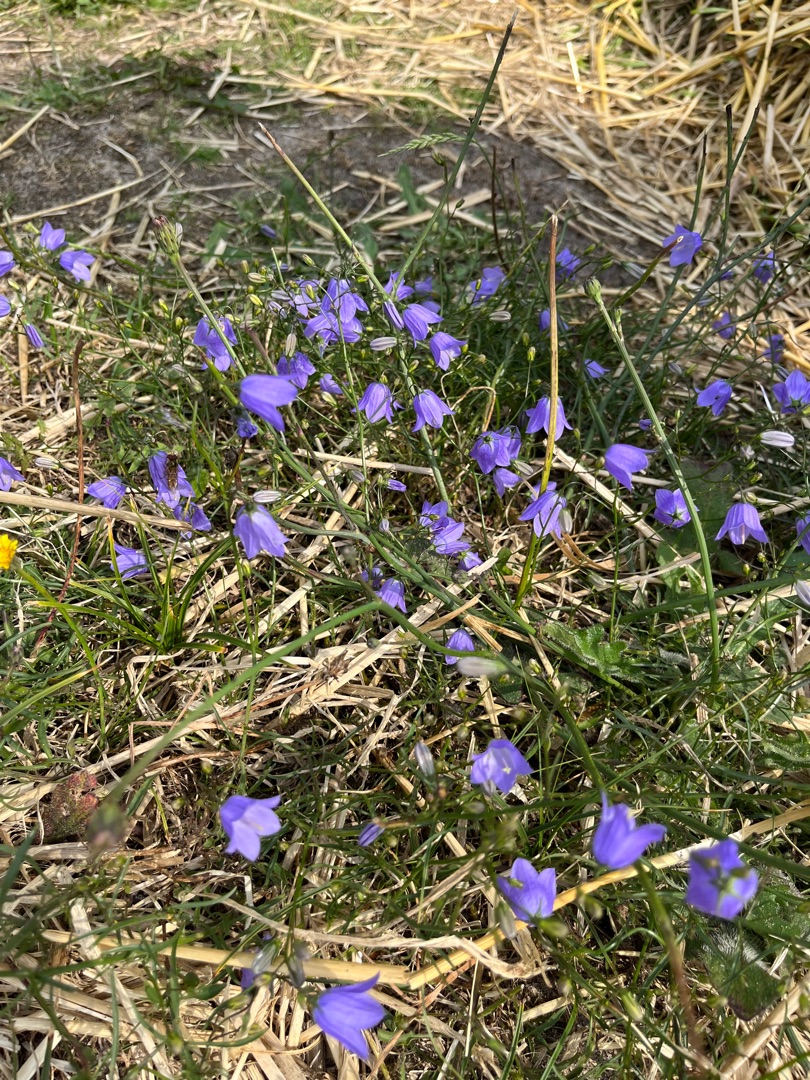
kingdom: Plantae
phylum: Tracheophyta
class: Magnoliopsida
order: Asterales
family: Campanulaceae
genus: Campanula
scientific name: Campanula rotundifolia
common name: Liden klokke
